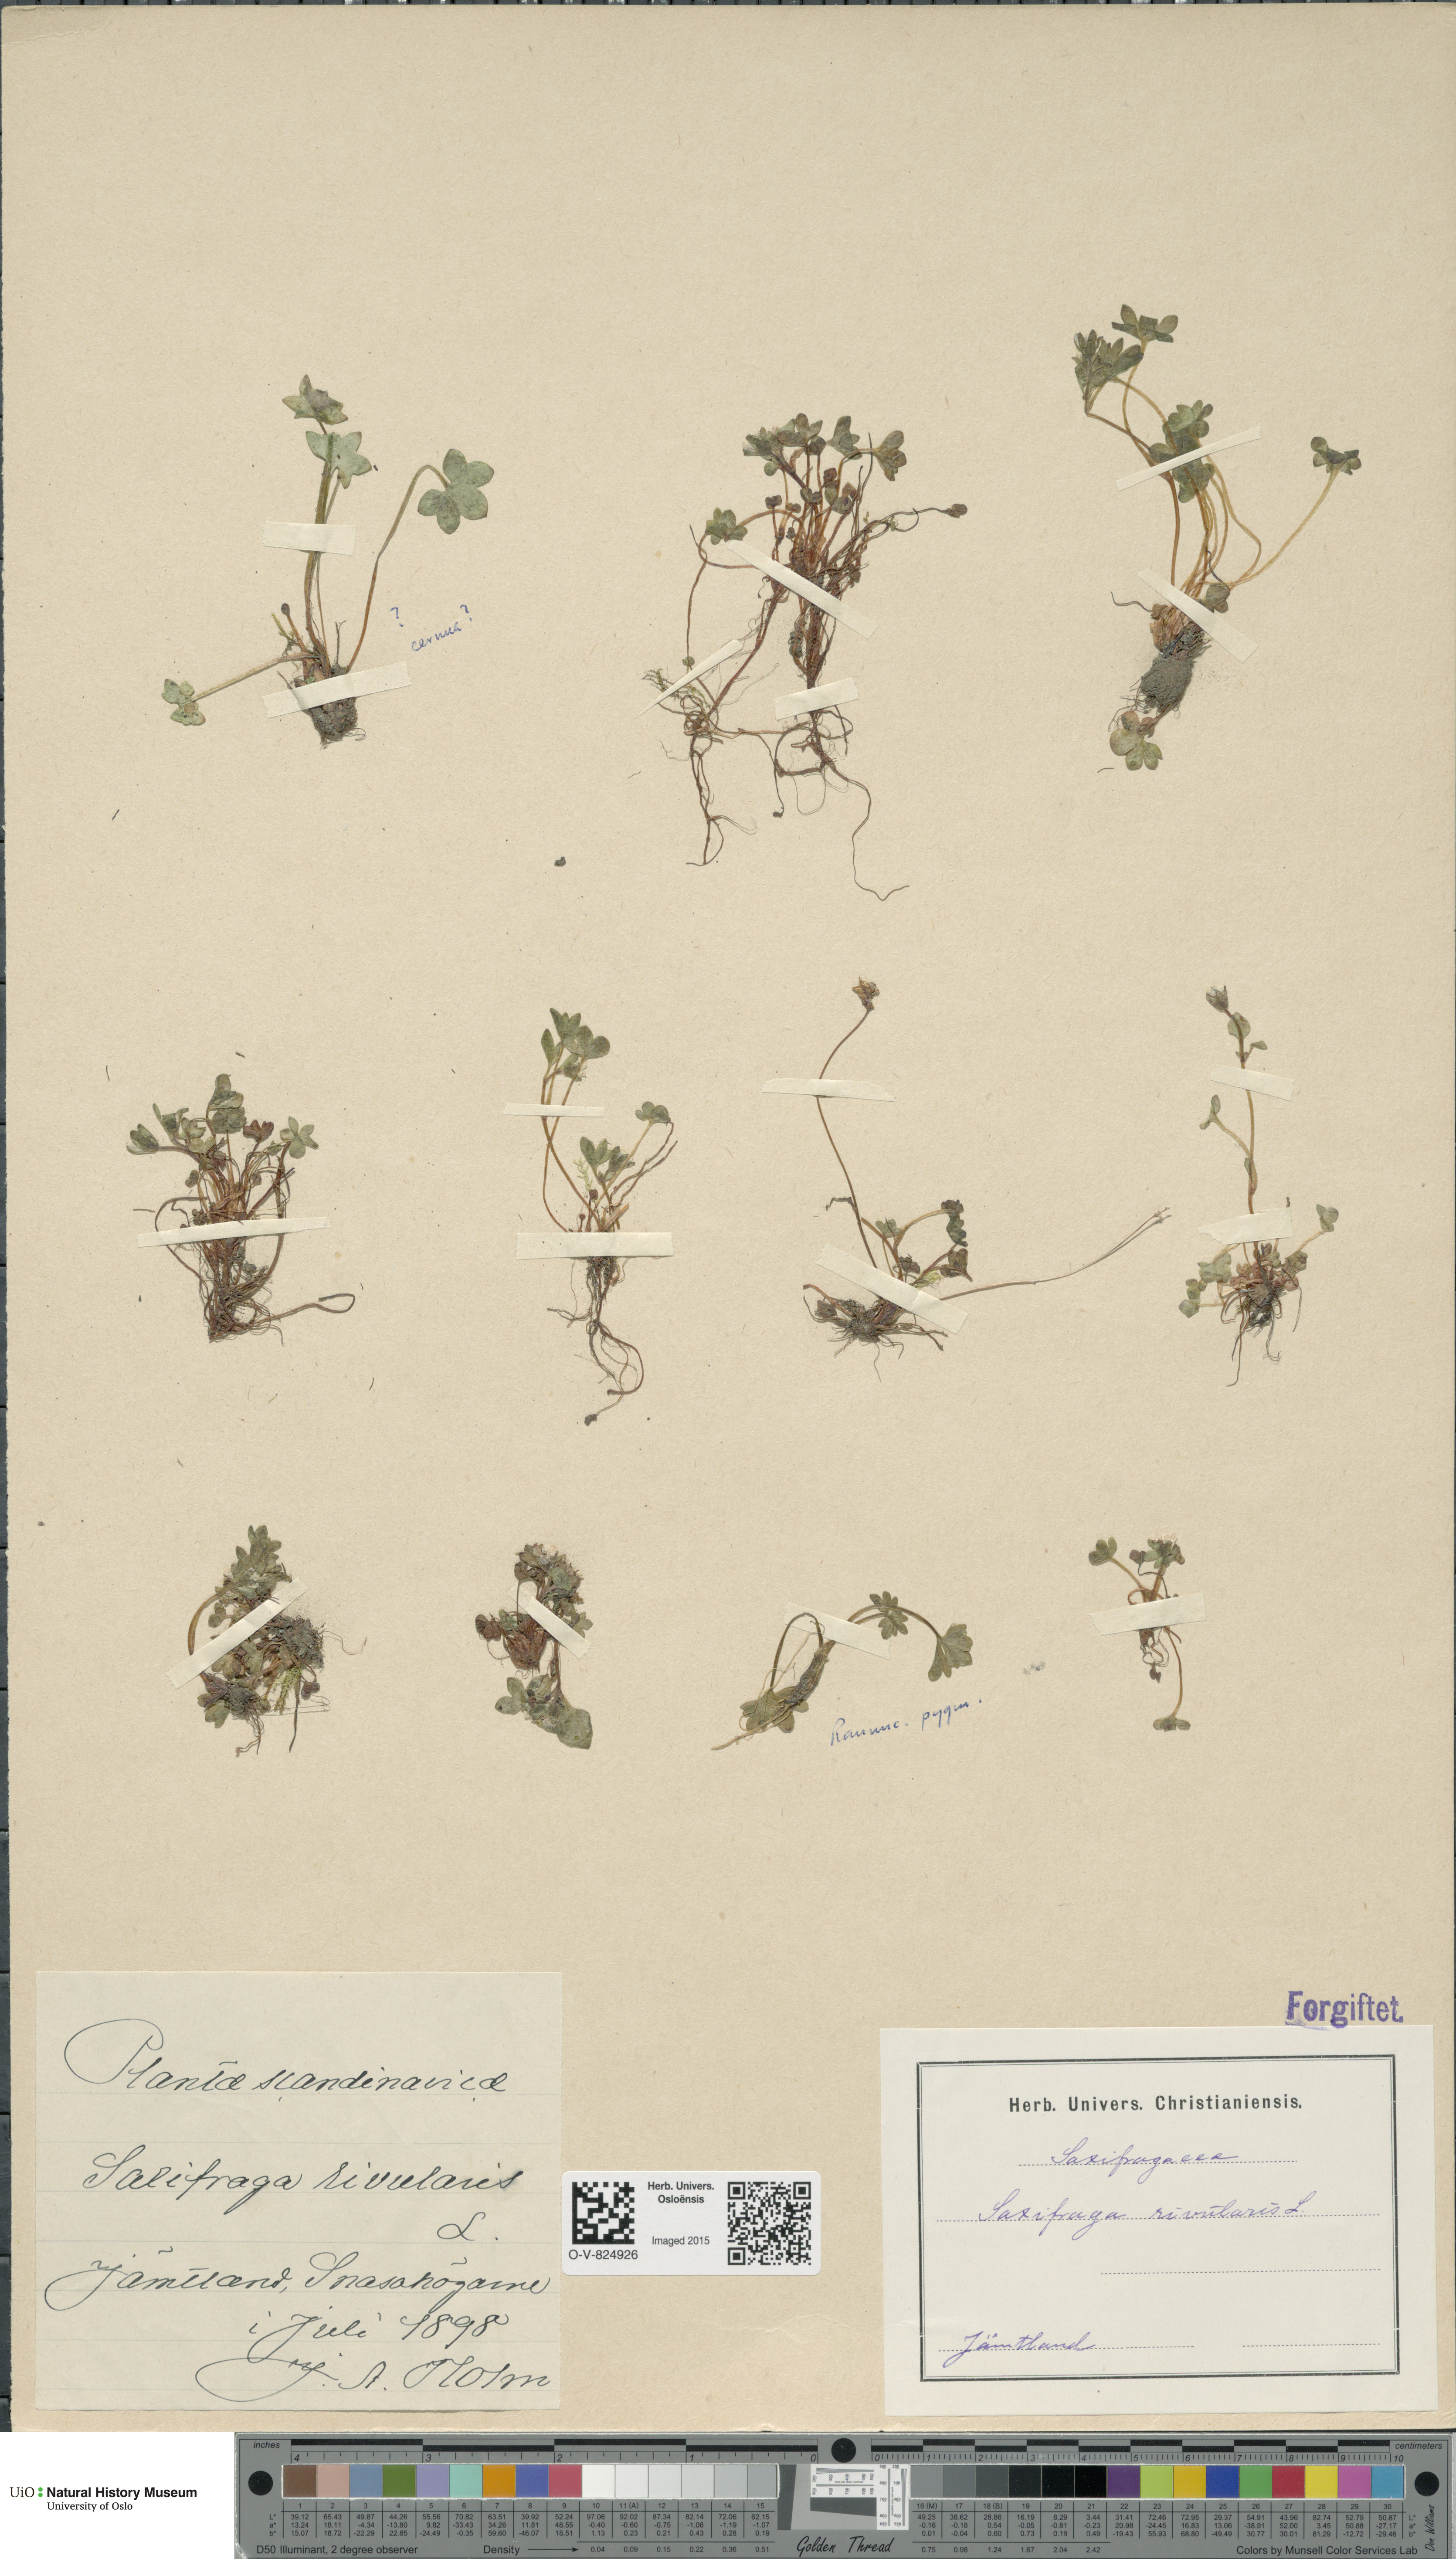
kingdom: Plantae
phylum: Tracheophyta
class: Magnoliopsida
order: Saxifragales
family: Saxifragaceae
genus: Saxifraga
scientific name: Saxifraga rivularis
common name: Highland saxifrage
